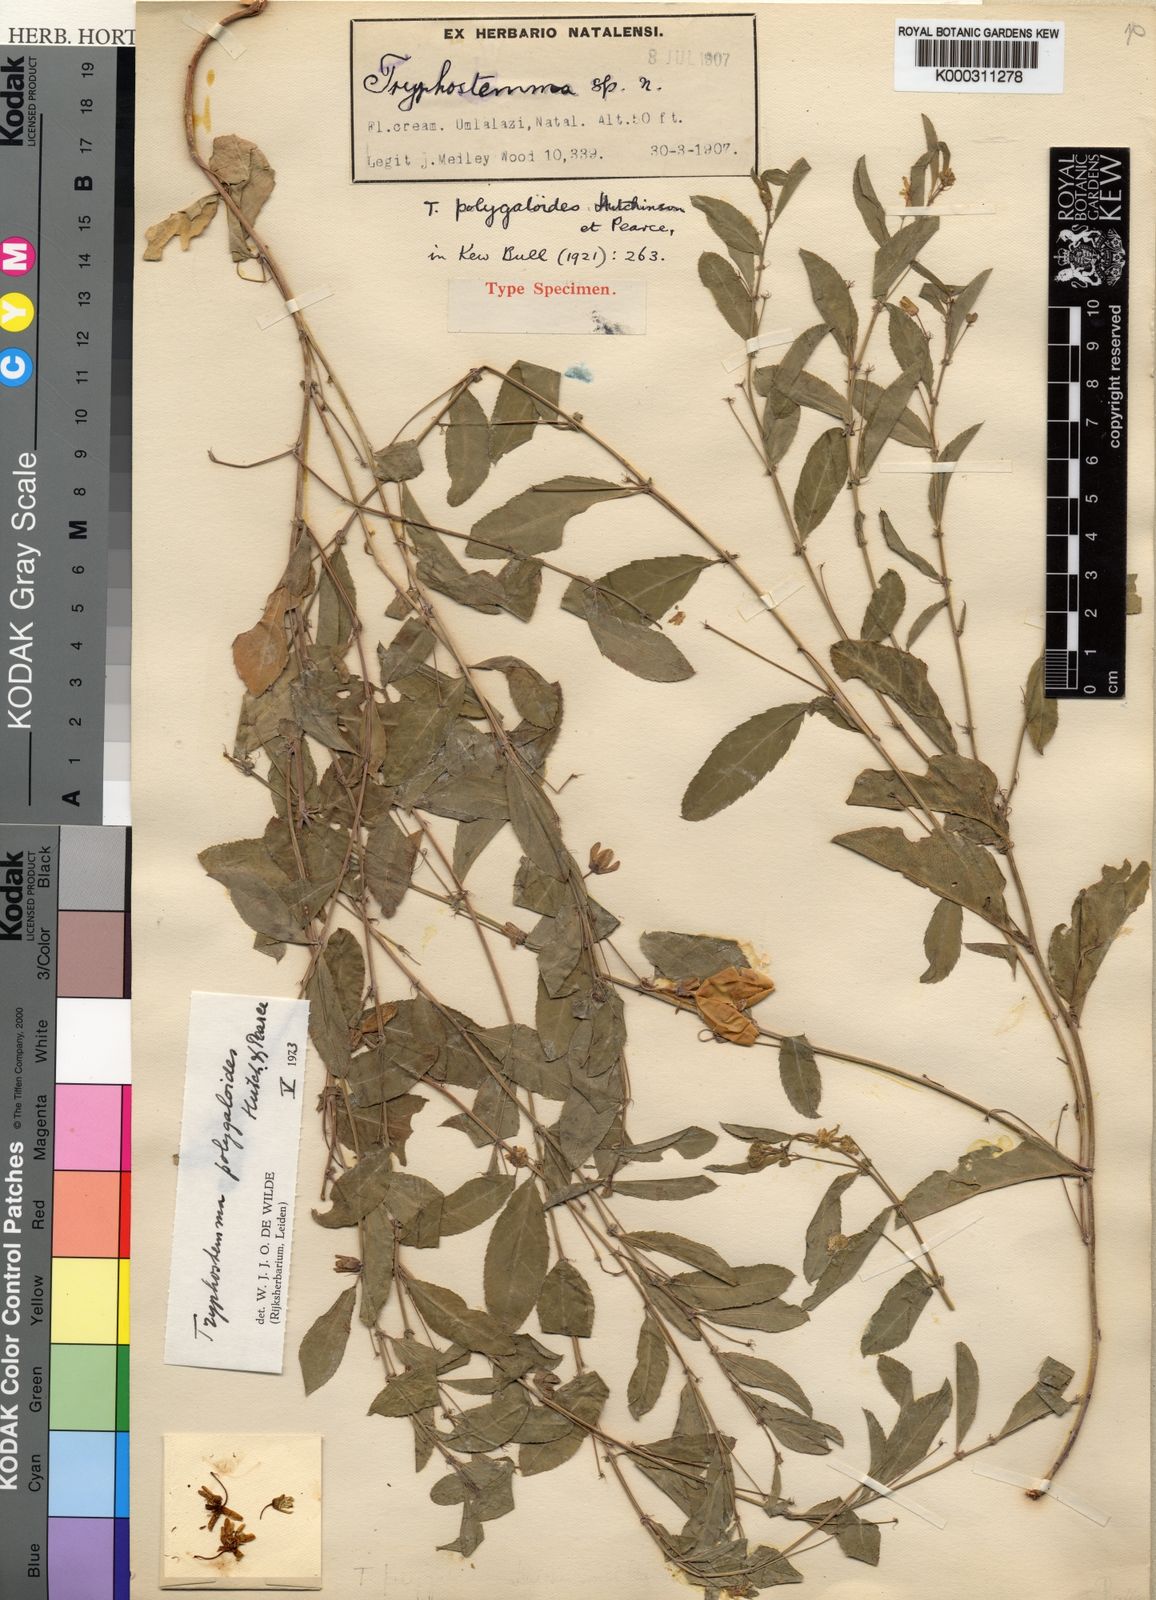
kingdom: Plantae
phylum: Tracheophyta
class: Magnoliopsida
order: Malpighiales
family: Passifloraceae
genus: Basananthe
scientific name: Basananthe polygaloides
